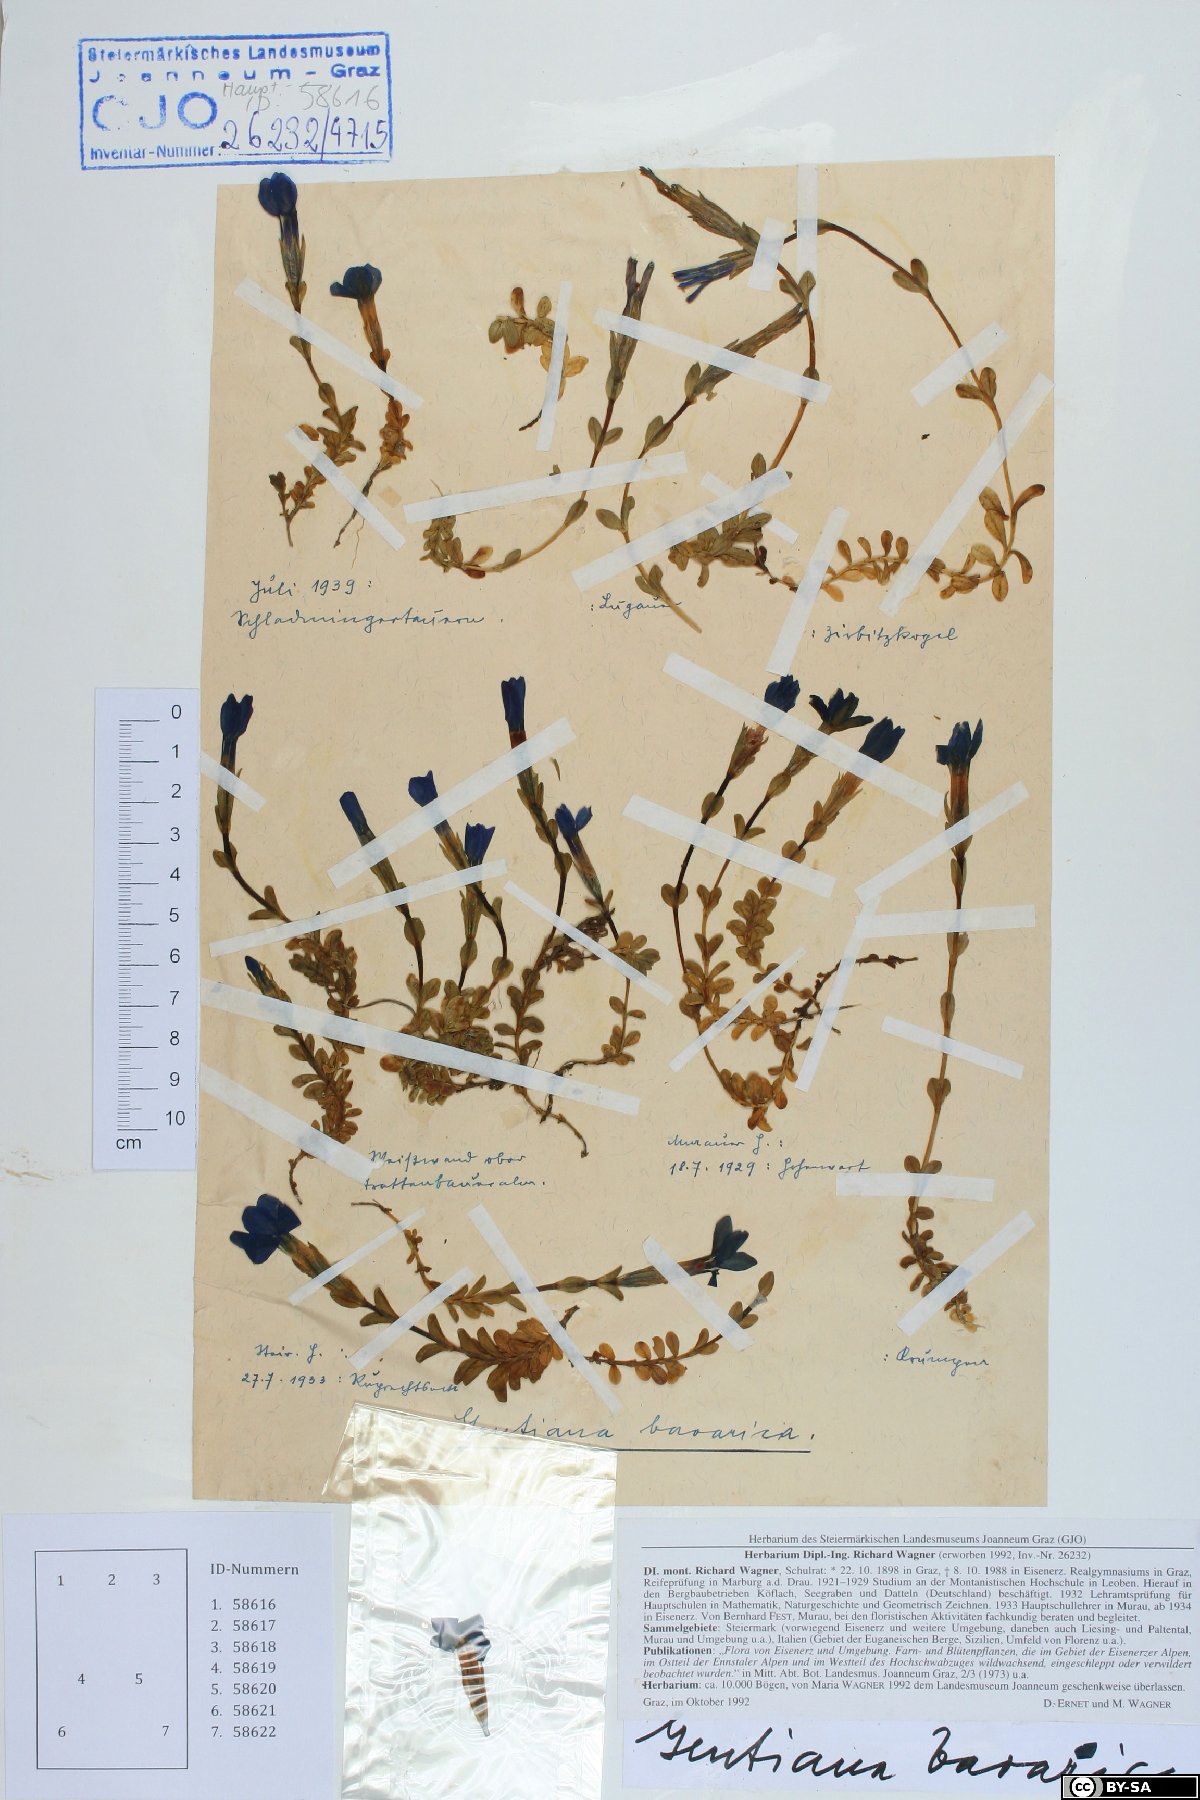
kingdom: Plantae
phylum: Tracheophyta
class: Magnoliopsida
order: Gentianales
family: Gentianaceae
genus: Gentiana
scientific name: Gentiana bavarica
